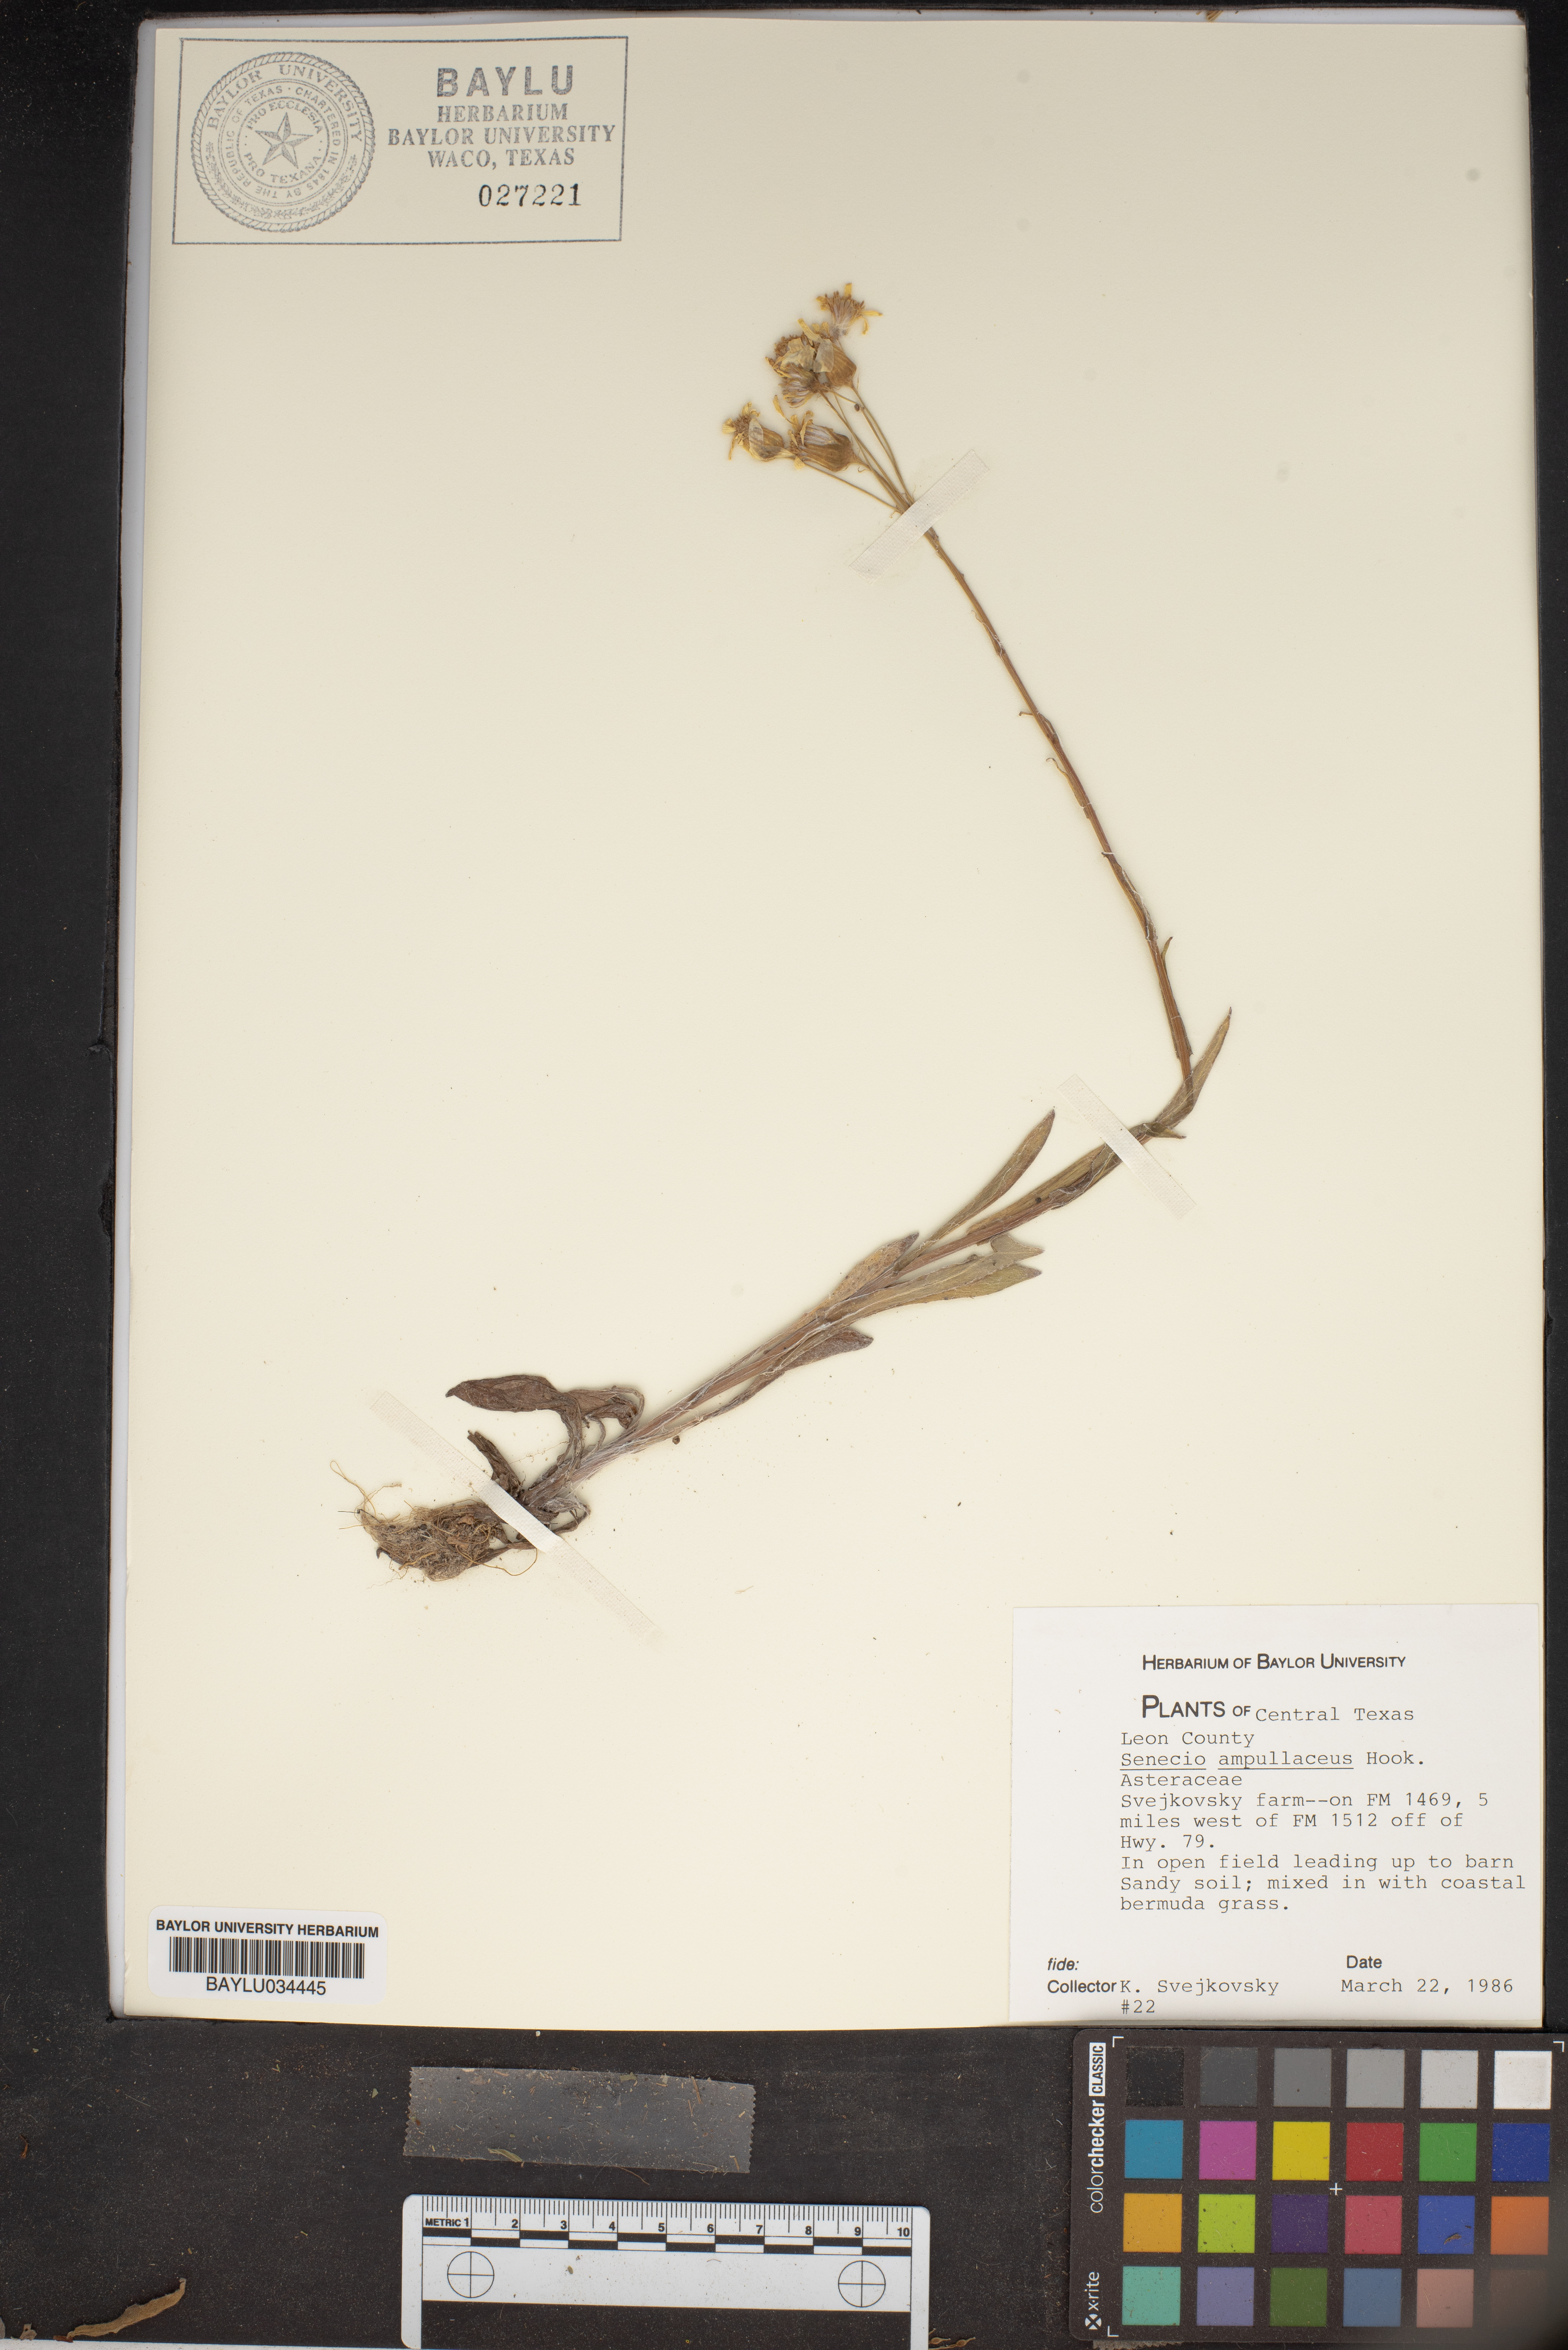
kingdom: Plantae
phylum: Tracheophyta
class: Magnoliopsida
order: Asterales
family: Asteraceae
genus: Senecio
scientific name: Senecio ampullaceus
